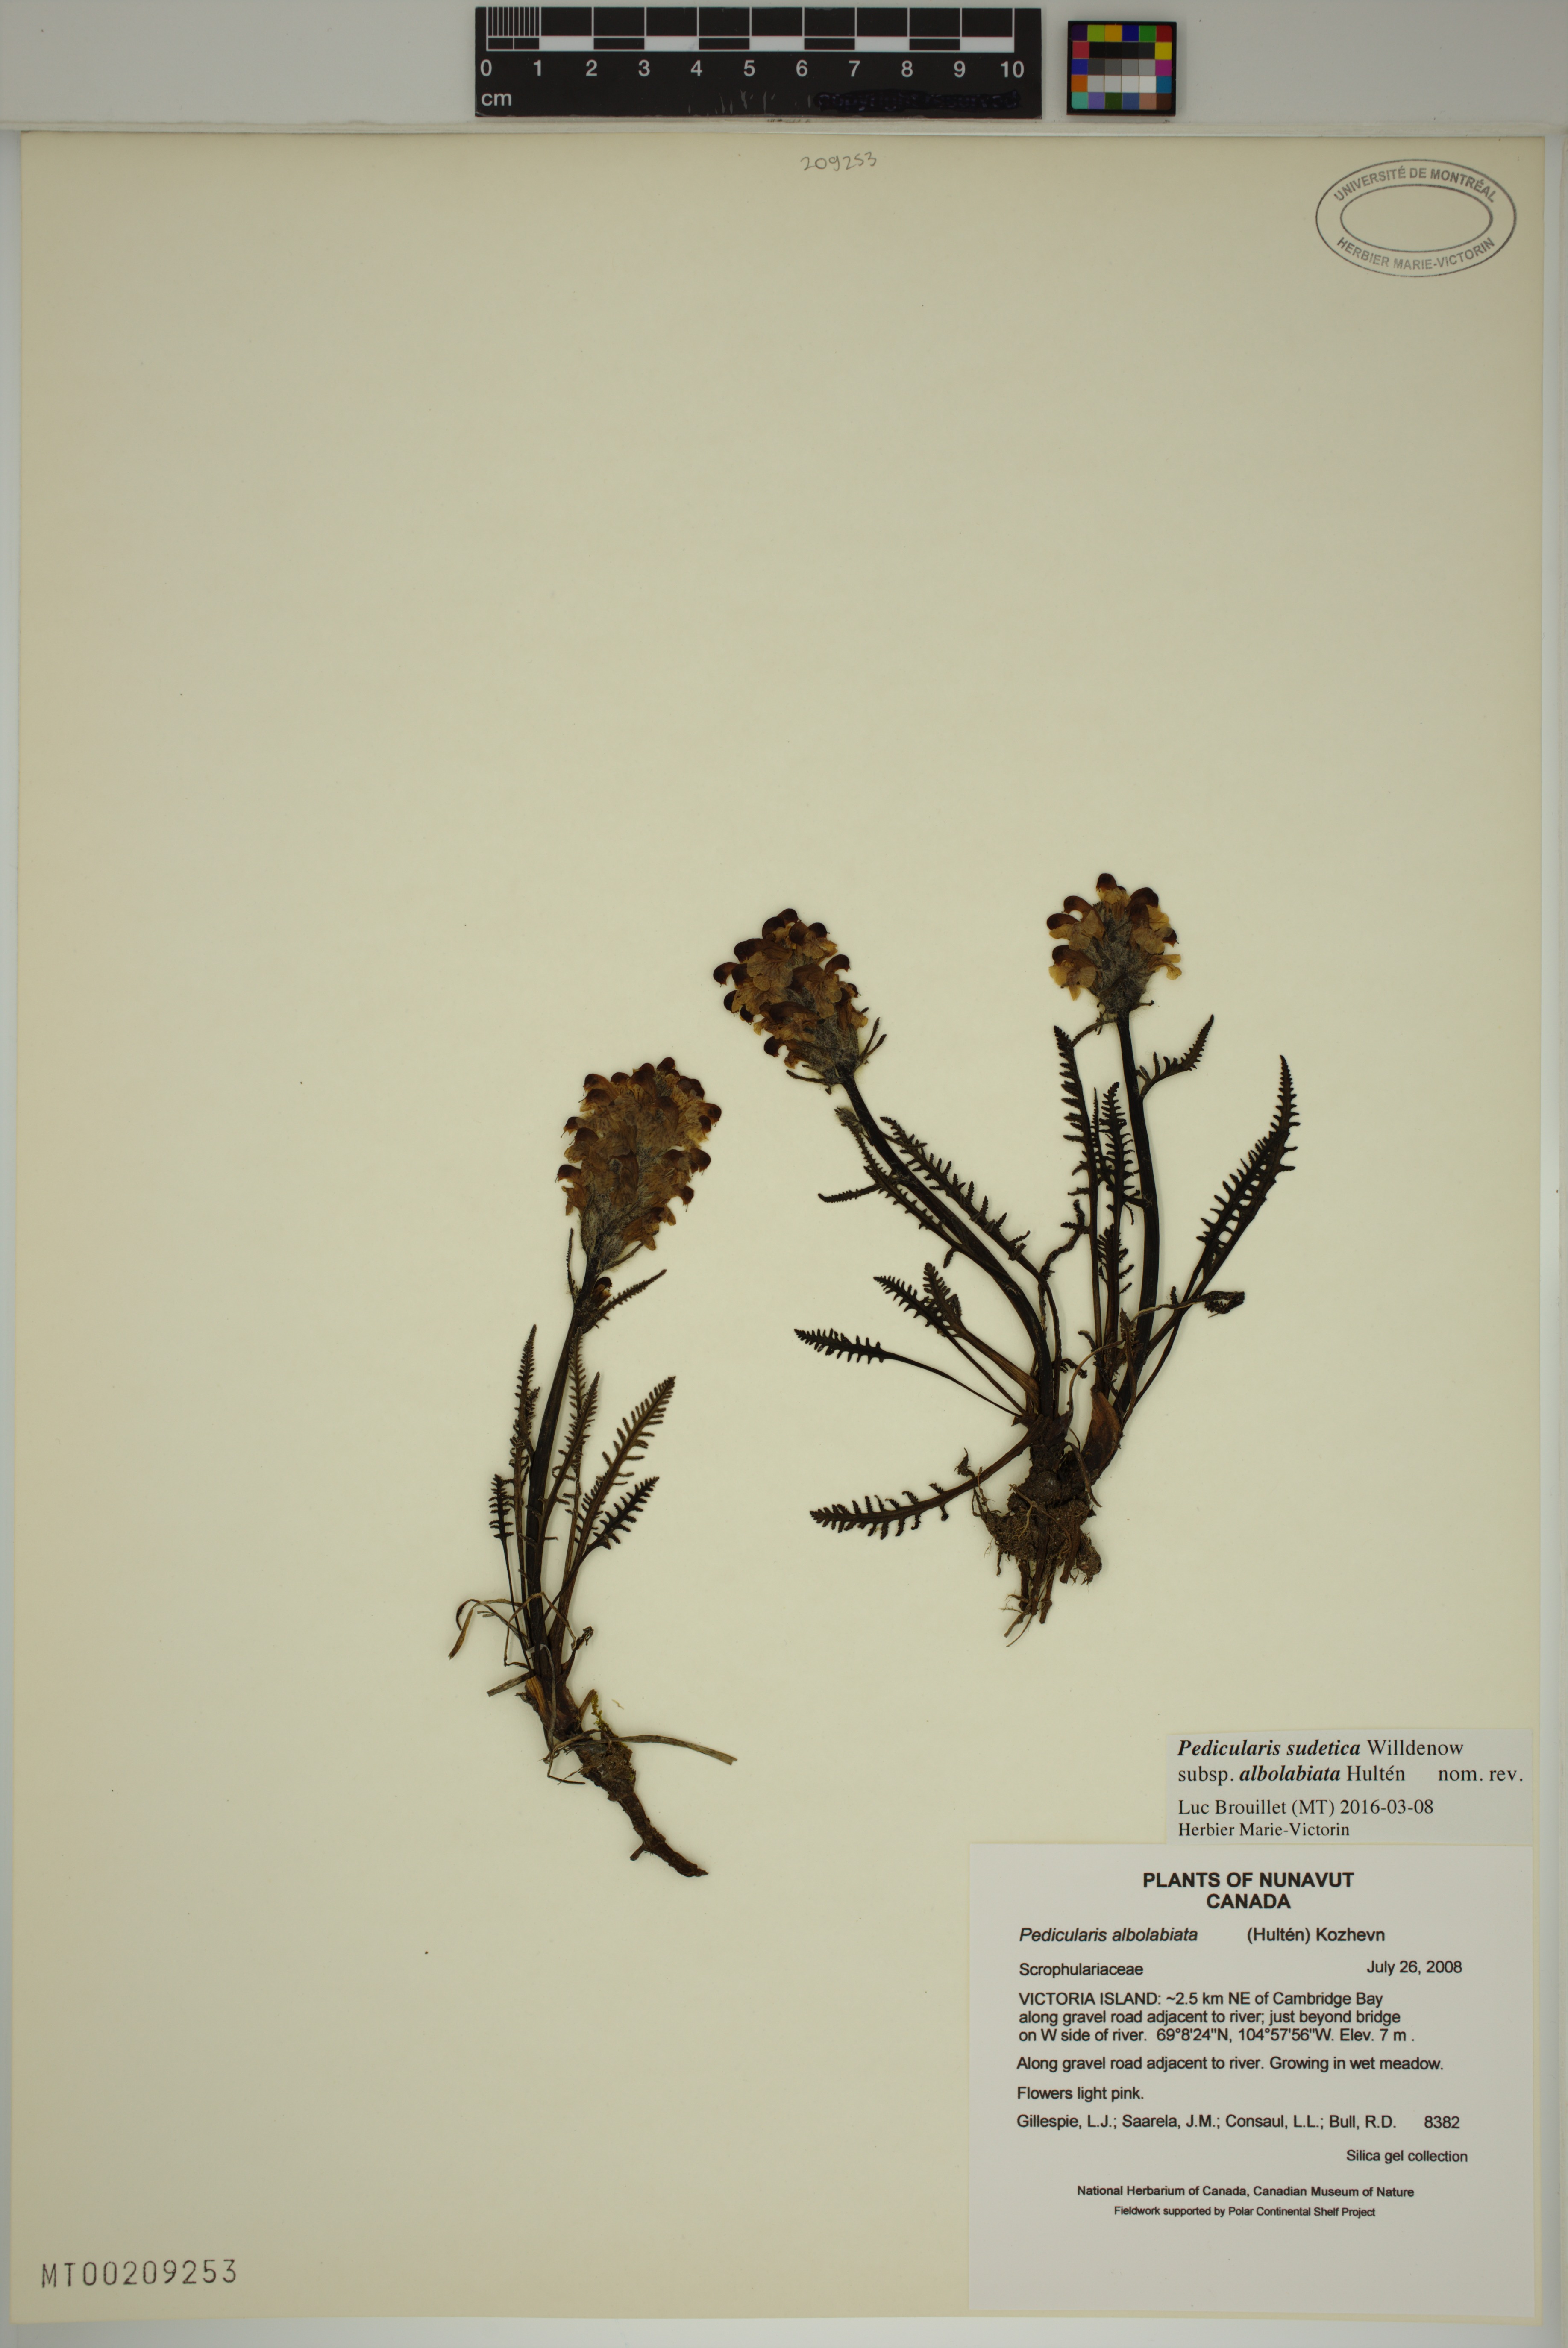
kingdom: Plantae
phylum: Tracheophyta
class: Magnoliopsida
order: Lamiales
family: Orobanchaceae
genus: Pedicularis
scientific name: Pedicularis novaiae-zemliae
